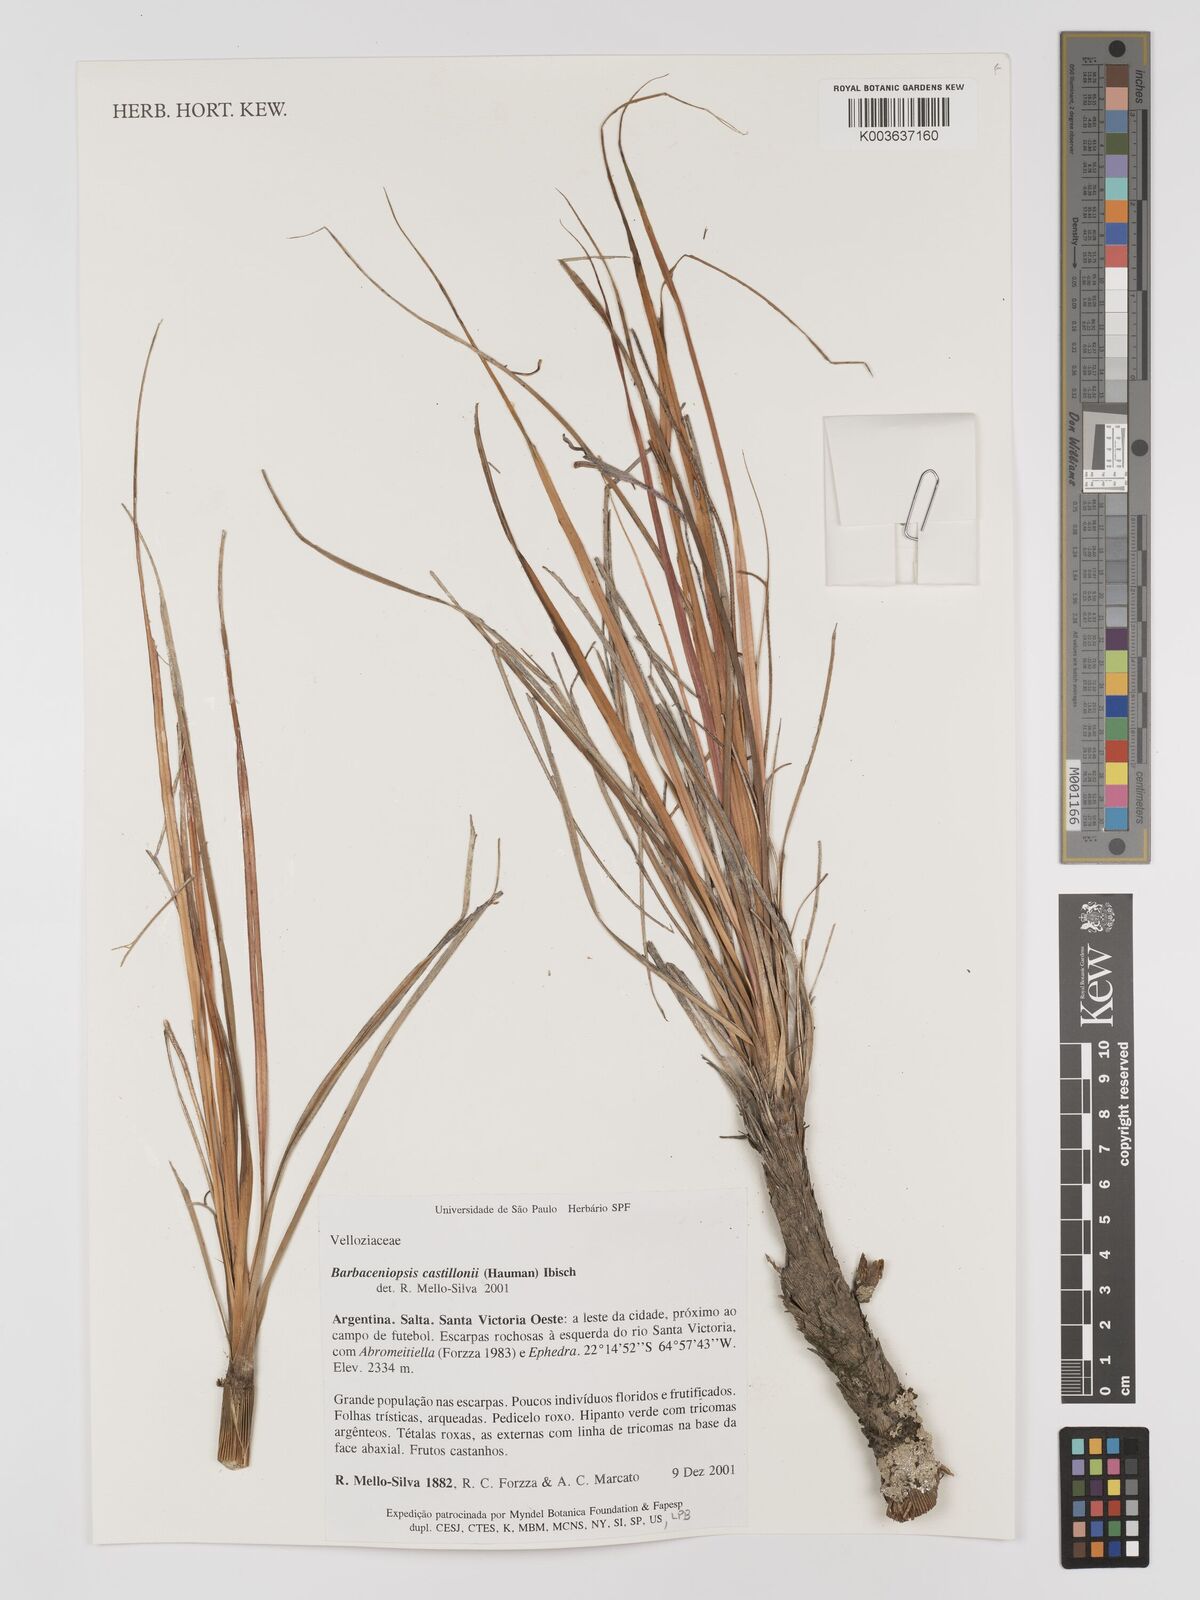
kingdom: Plantae
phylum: Tracheophyta
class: Liliopsida
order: Pandanales
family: Velloziaceae
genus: Barbaceniopsis
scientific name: Barbaceniopsis boliviensis
